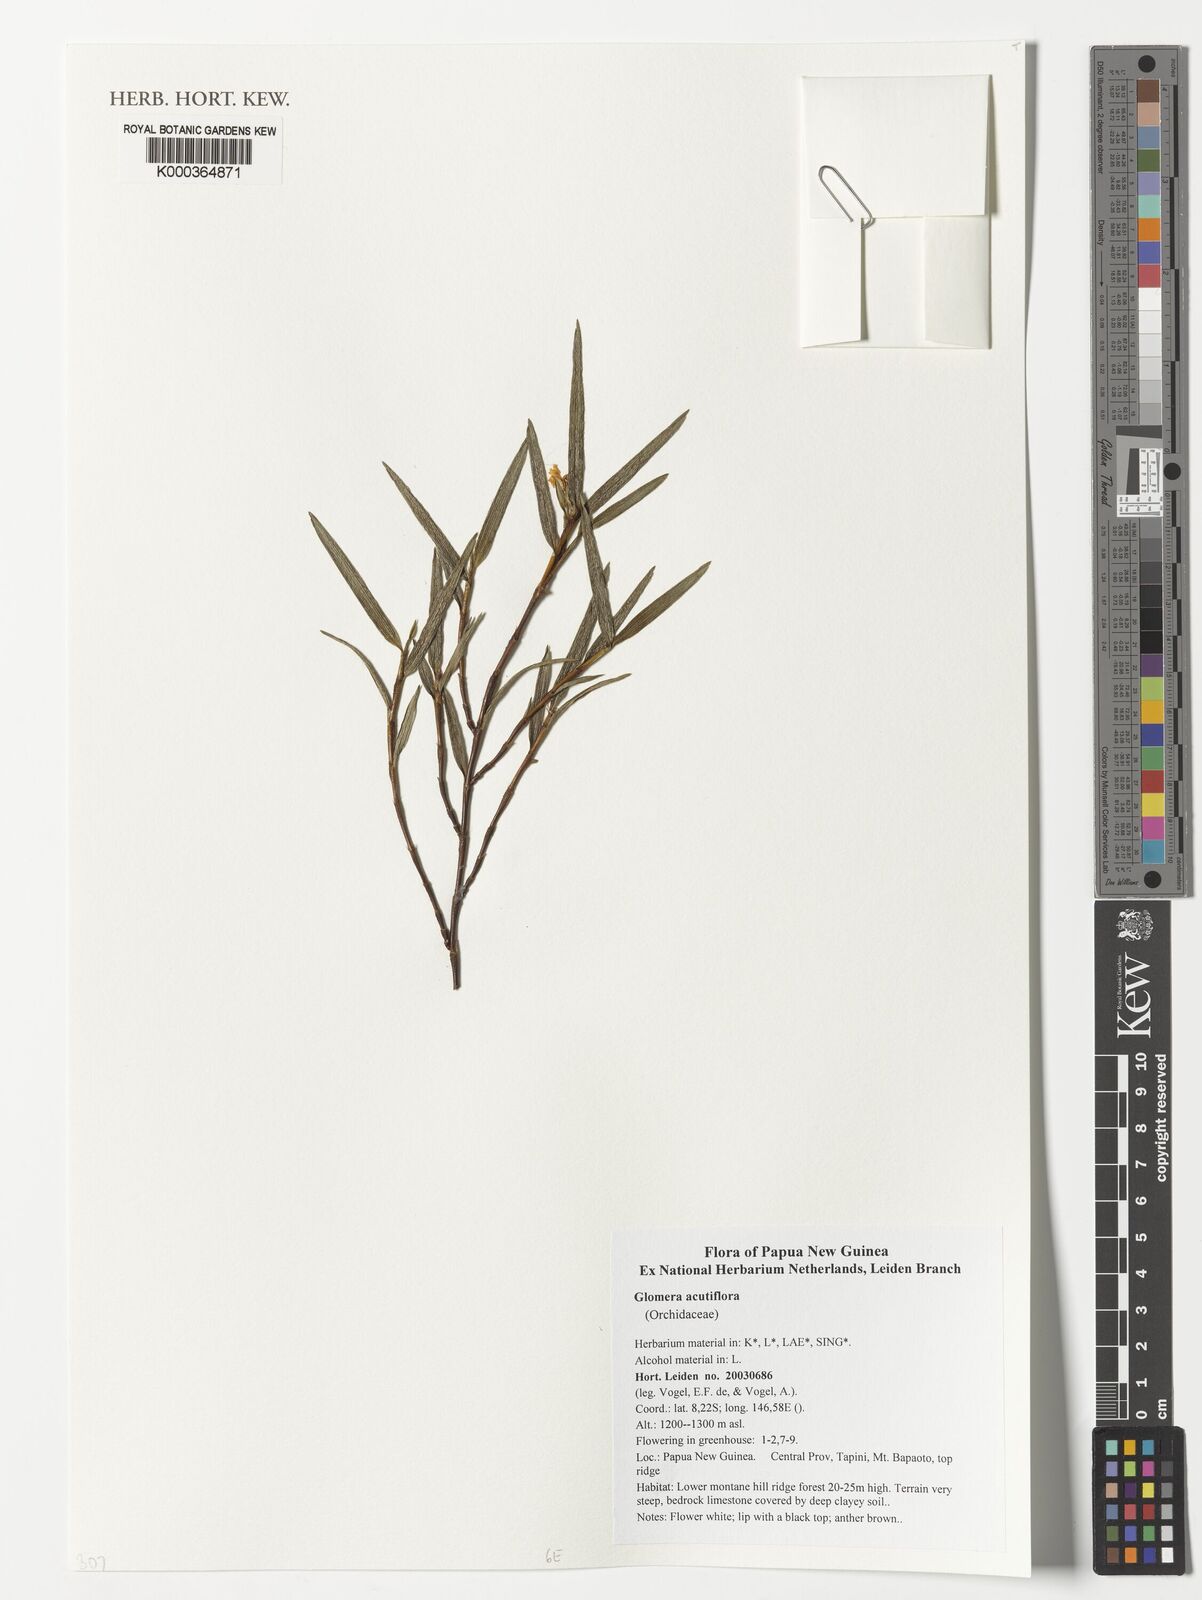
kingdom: Plantae
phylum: Tracheophyta
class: Liliopsida
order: Asparagales
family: Orchidaceae
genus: Glomera
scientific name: Glomera acutiflora
